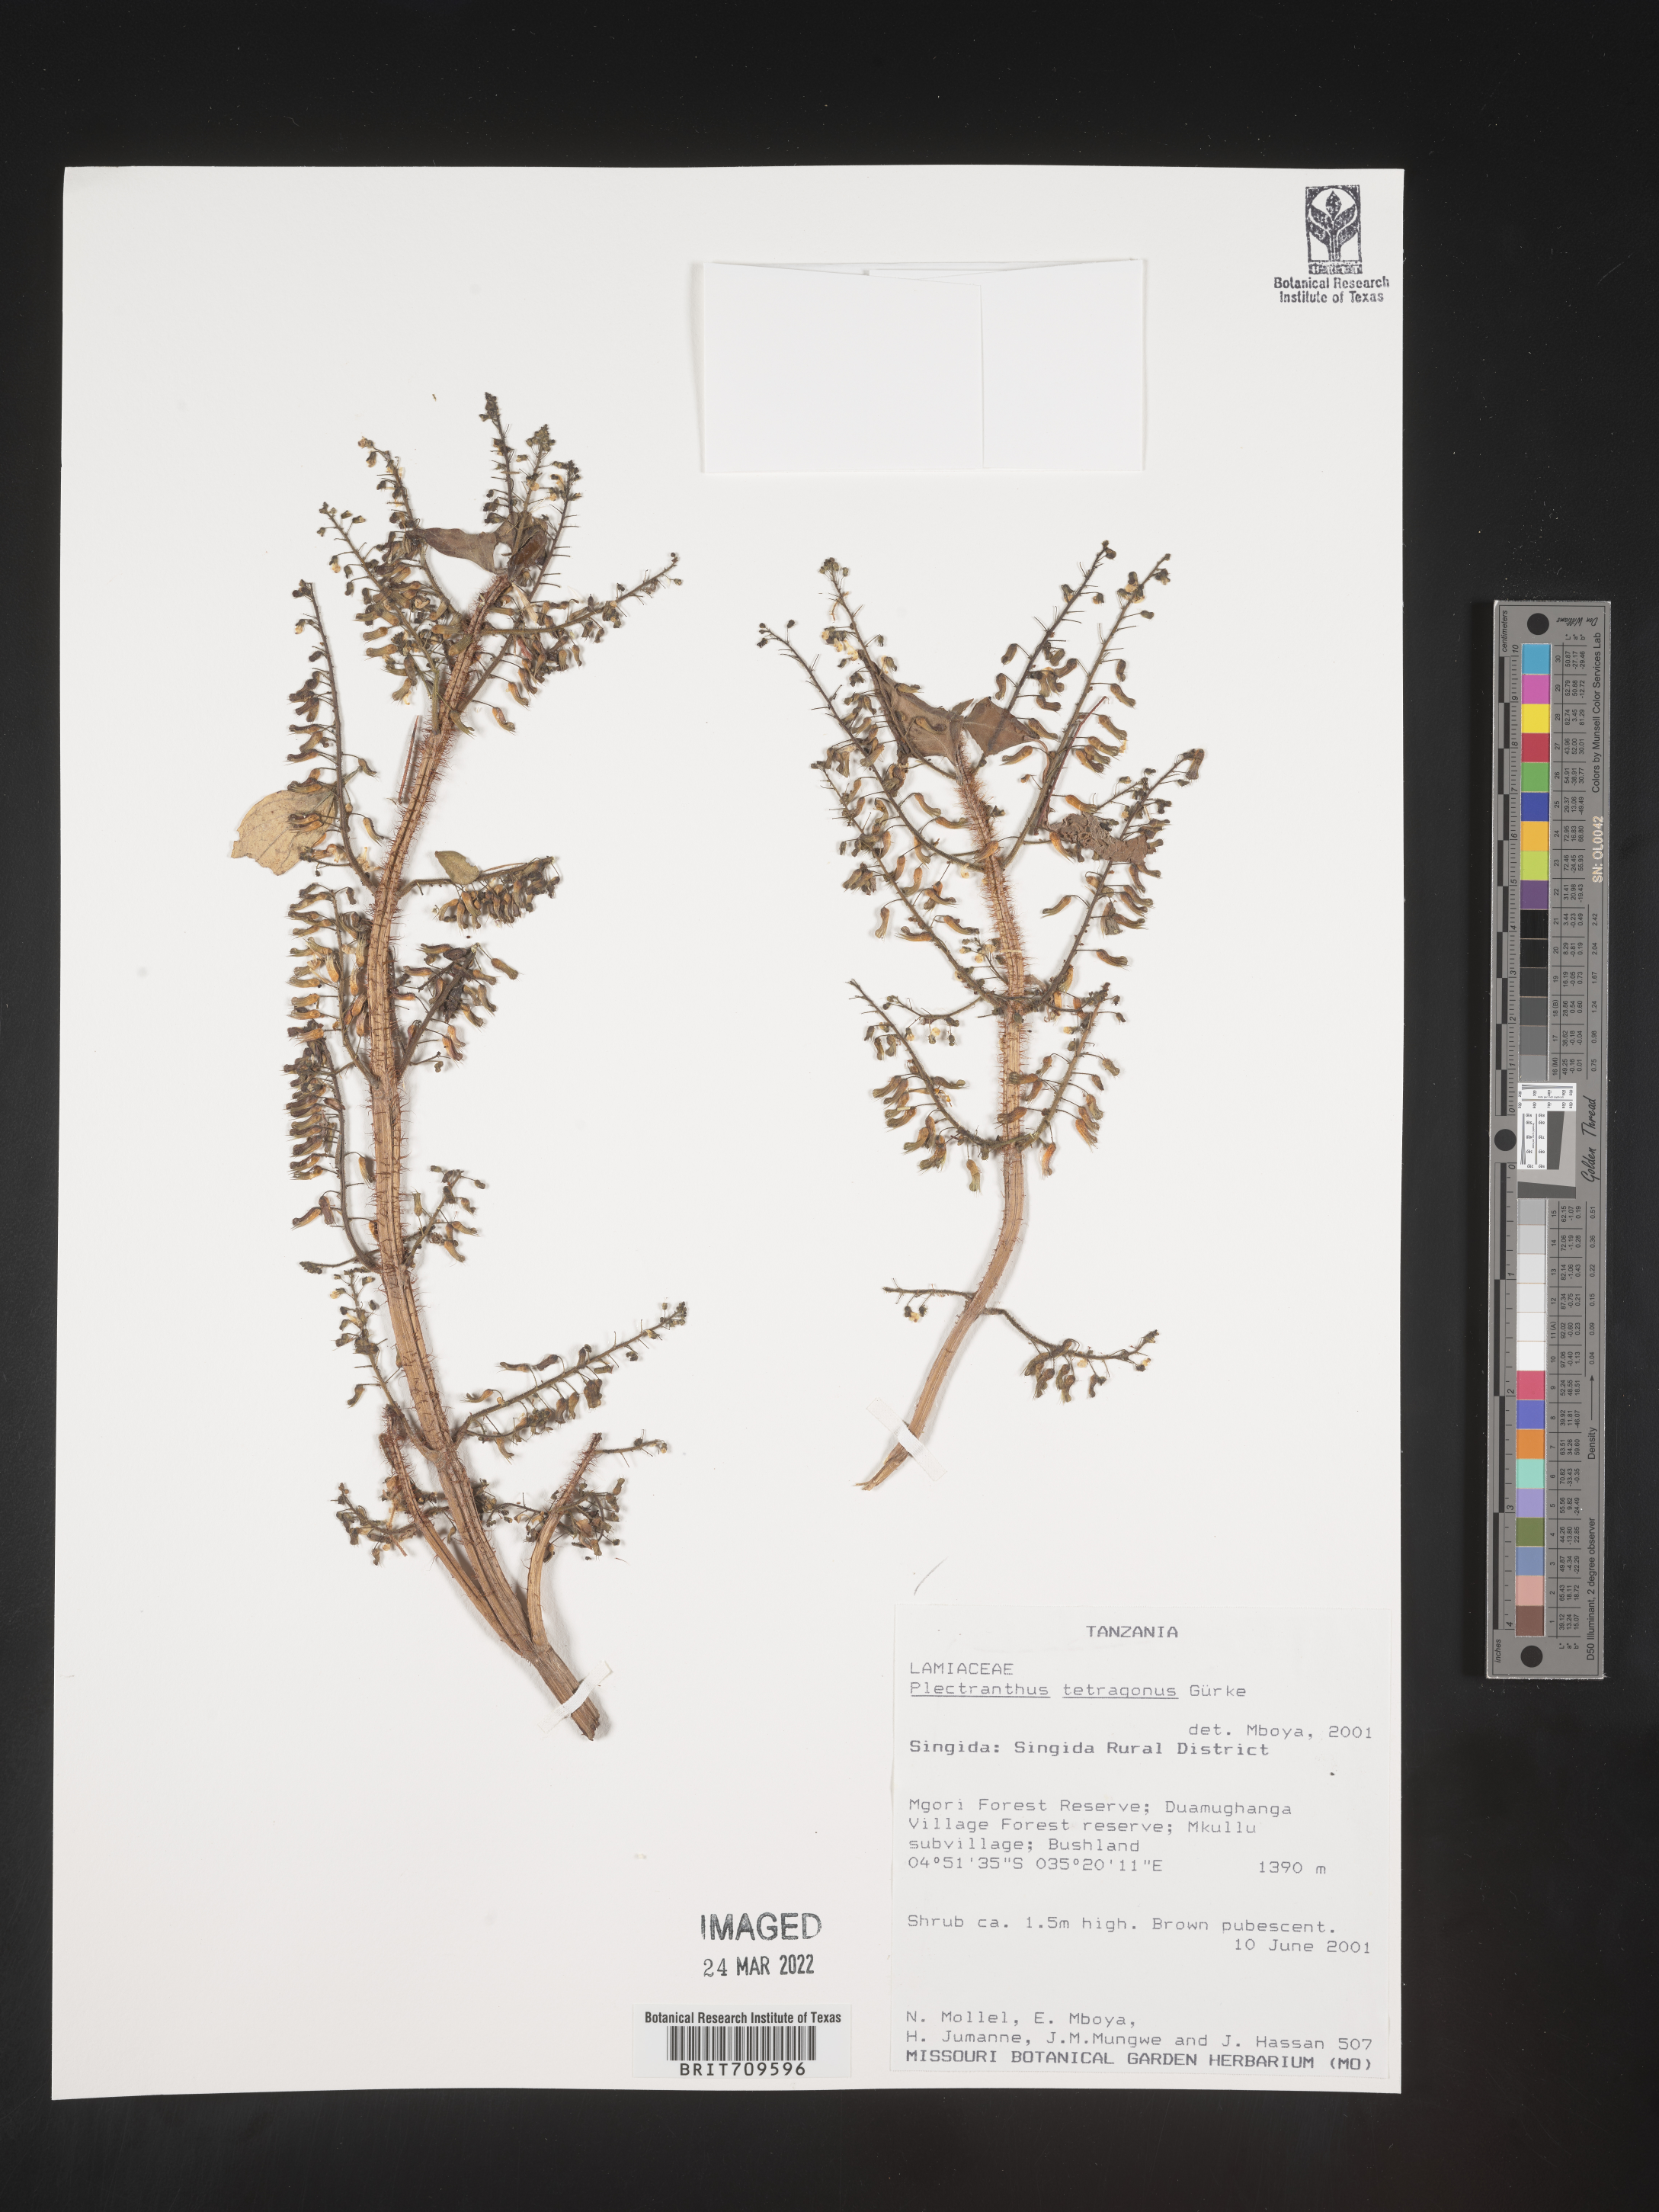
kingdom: Plantae
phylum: Tracheophyta
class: Magnoliopsida
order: Lamiales
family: Lamiaceae
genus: Plectranthus
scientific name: Plectranthus
